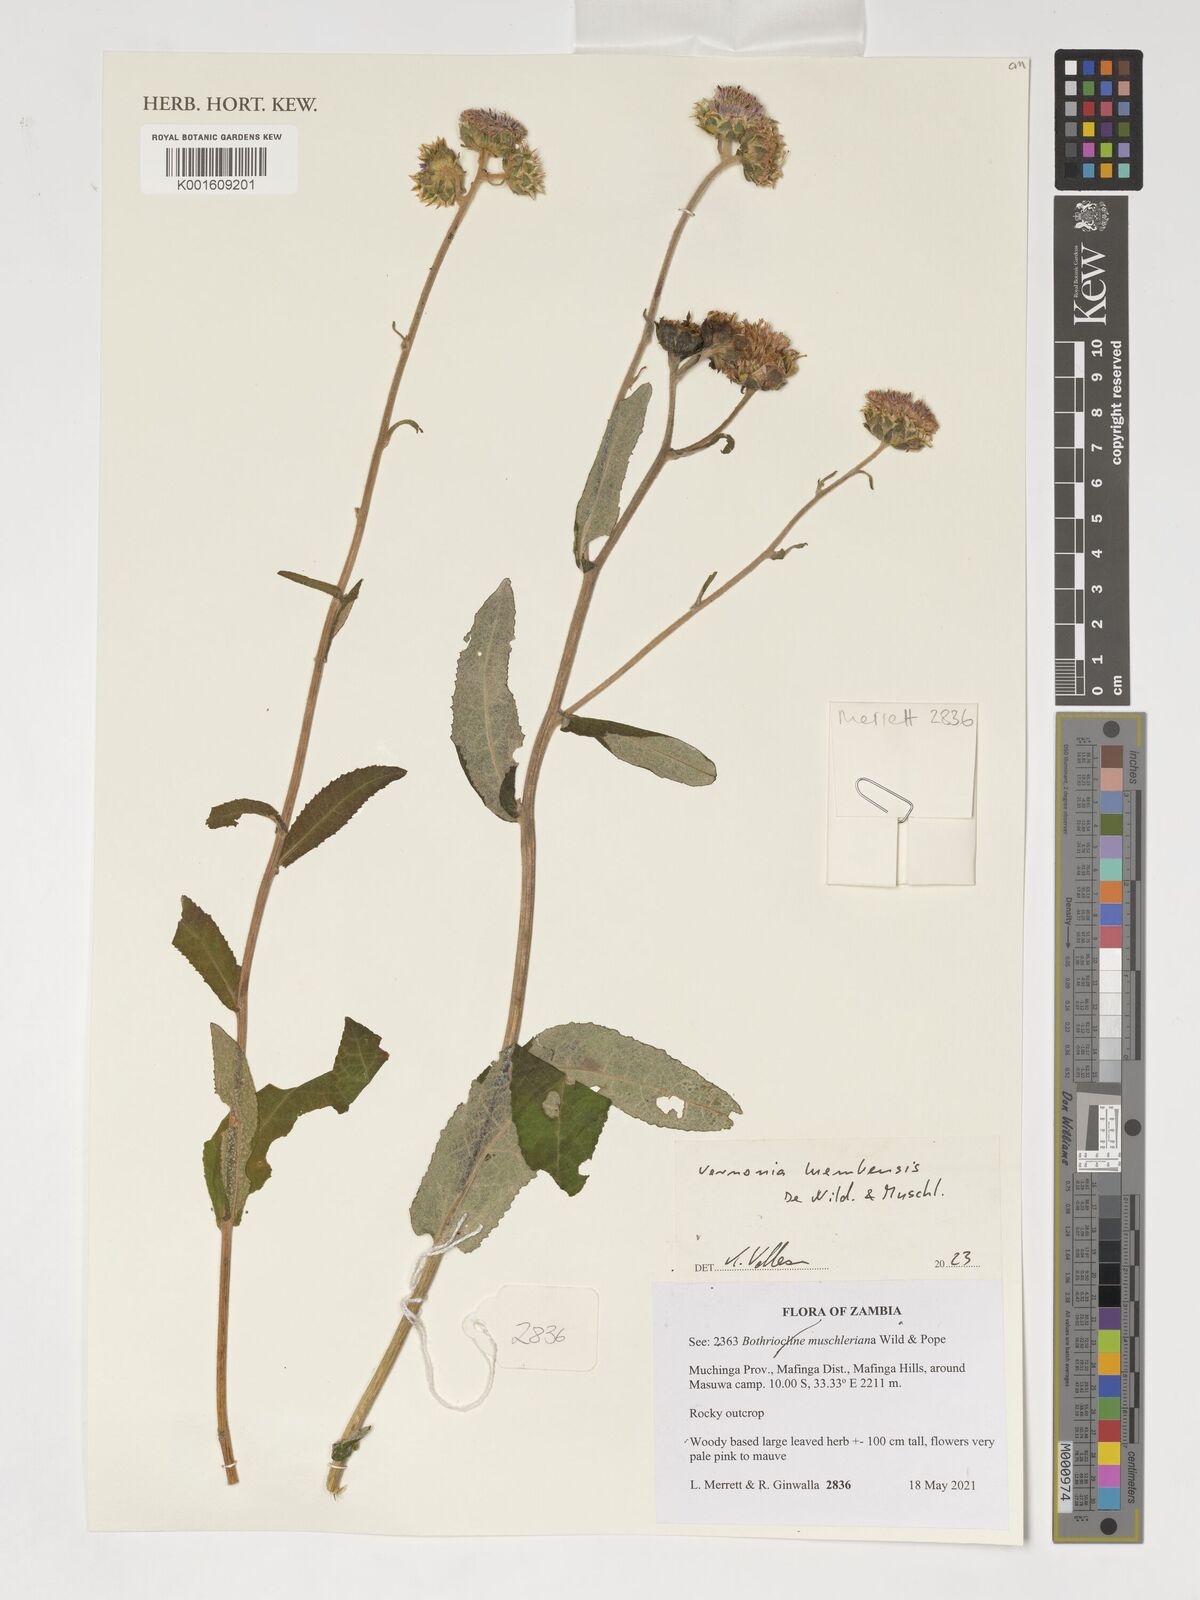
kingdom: Plantae
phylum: Tracheophyta
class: Magnoliopsida
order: Asterales
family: Asteraceae
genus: Vernonella
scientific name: Vernonella luembensis
